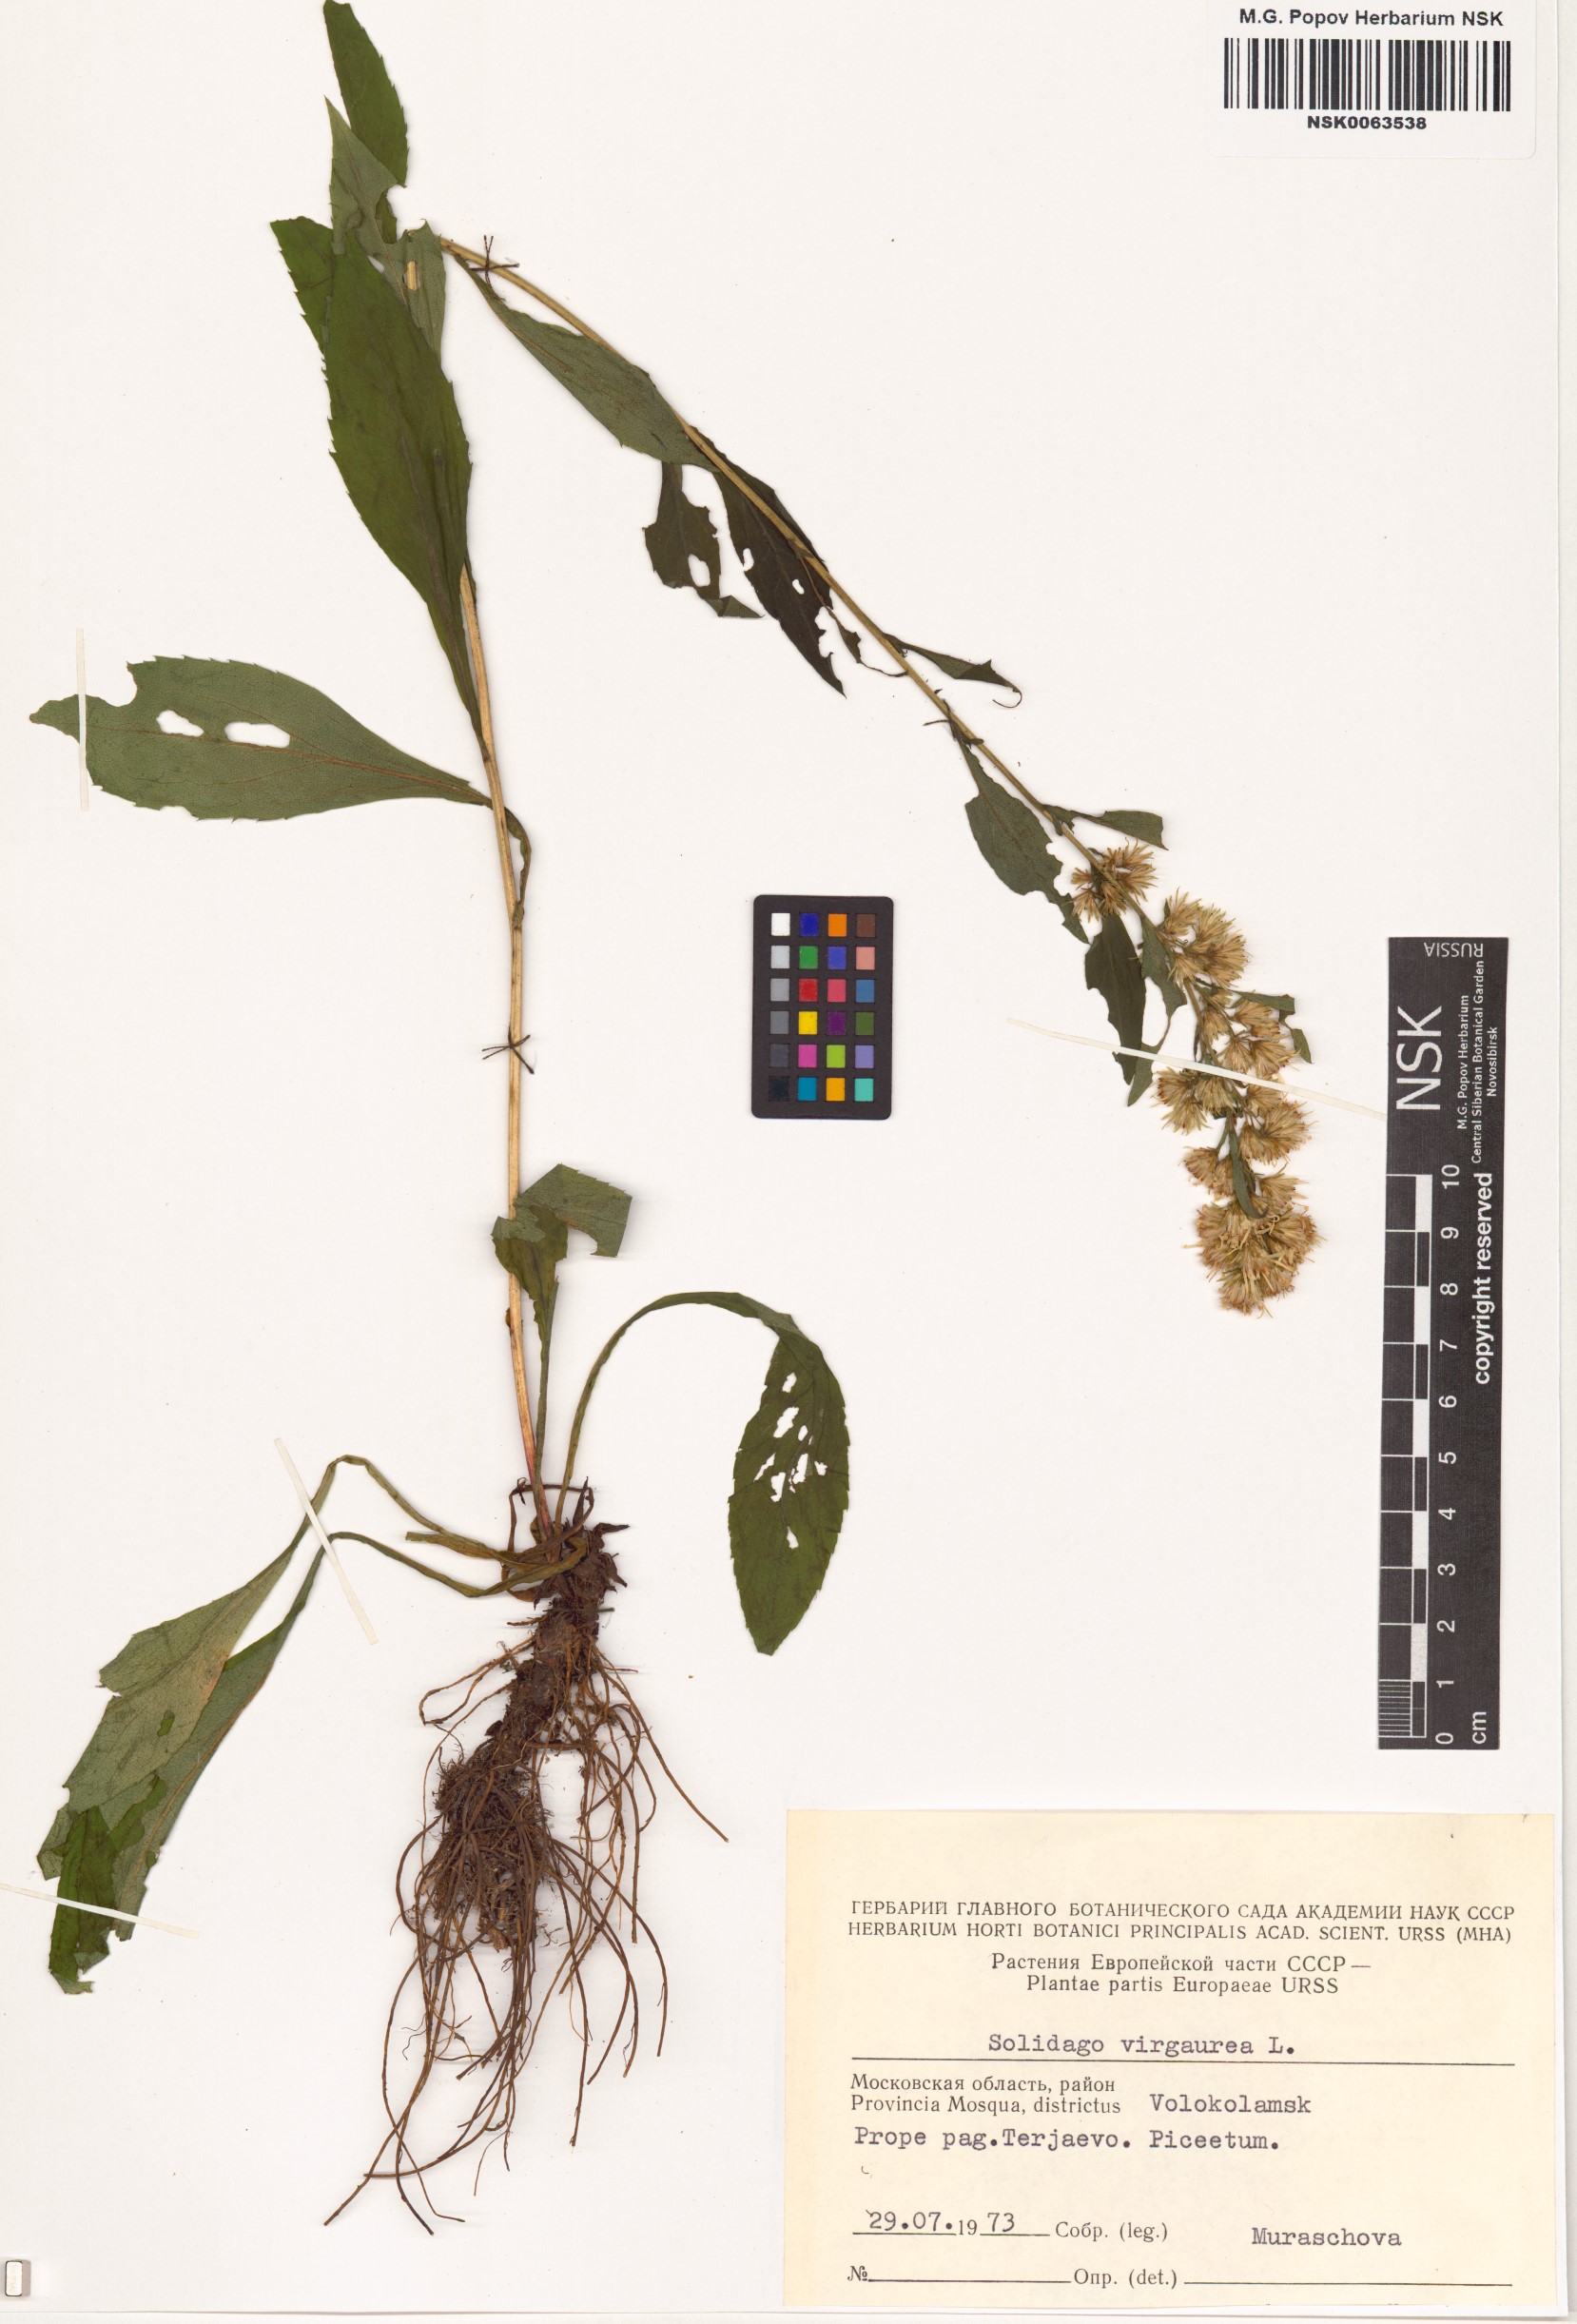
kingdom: Plantae
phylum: Tracheophyta
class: Magnoliopsida
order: Asterales
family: Asteraceae
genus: Solidago
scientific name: Solidago virgaurea
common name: Goldenrod
